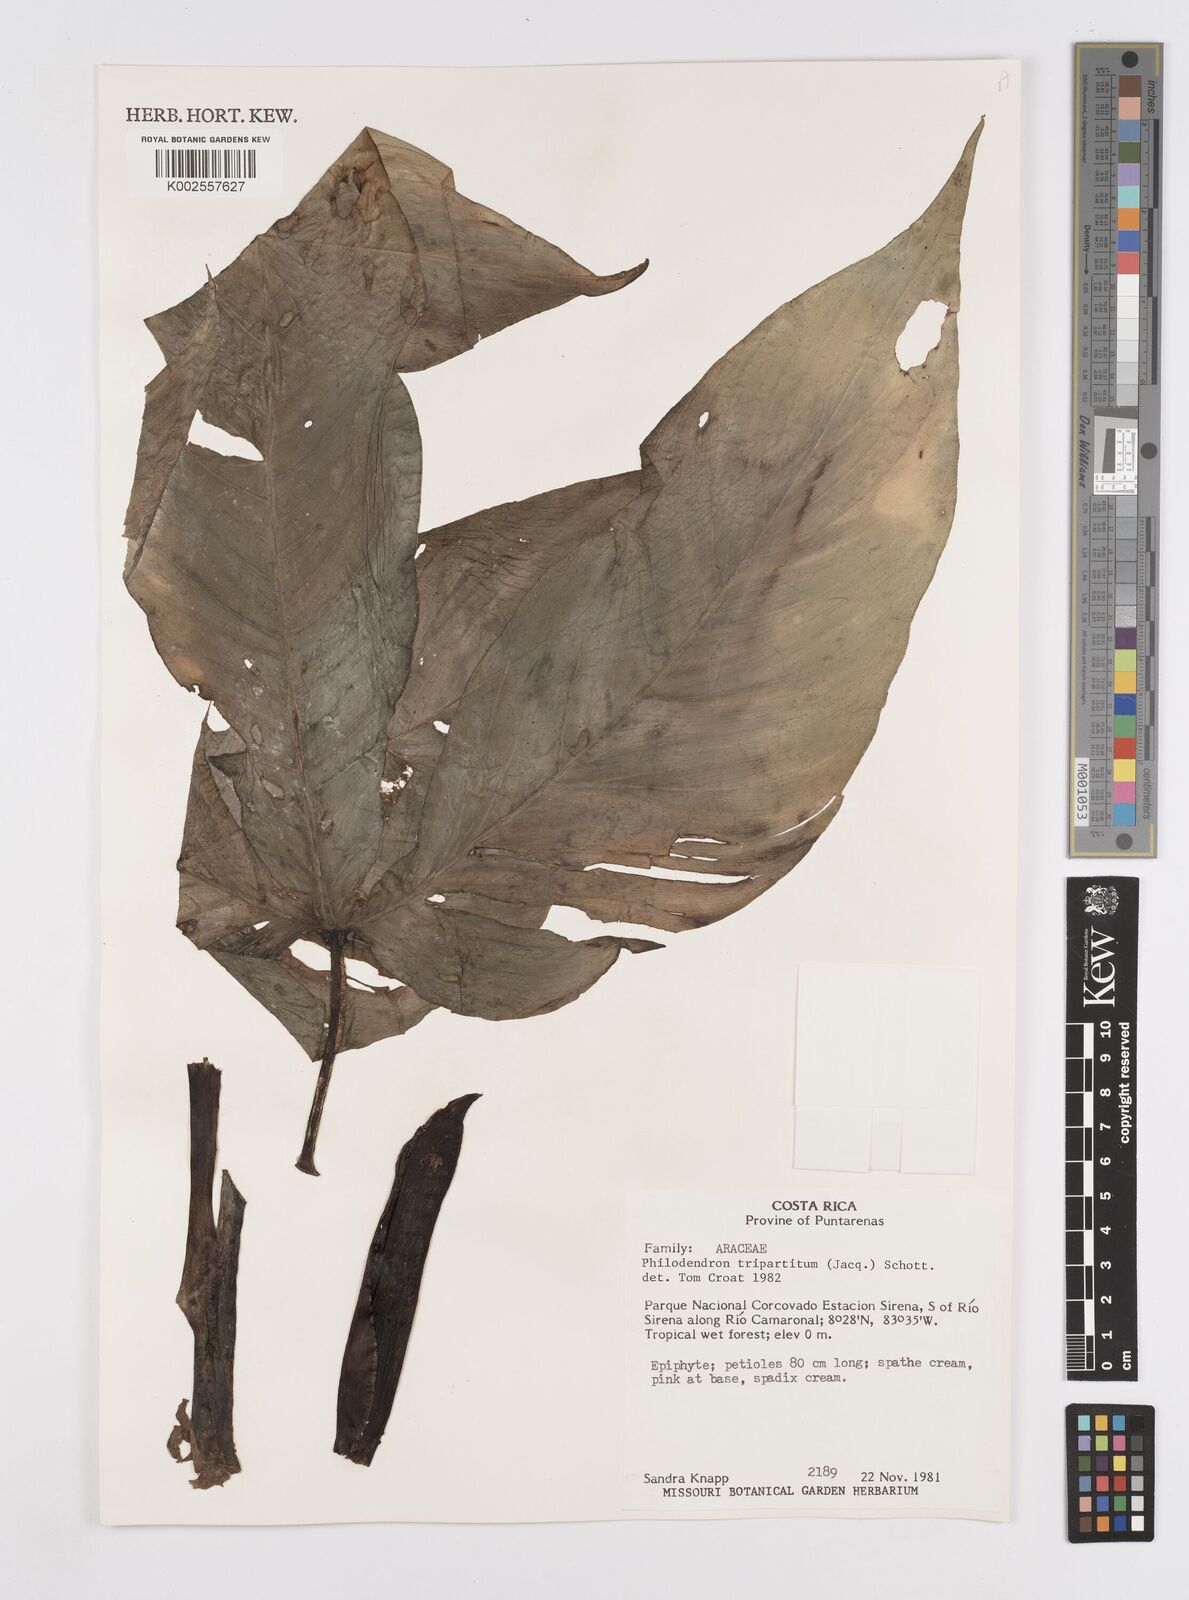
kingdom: Plantae
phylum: Tracheophyta
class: Liliopsida
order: Alismatales
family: Araceae
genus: Philodendron
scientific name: Philodendron tripartitum
